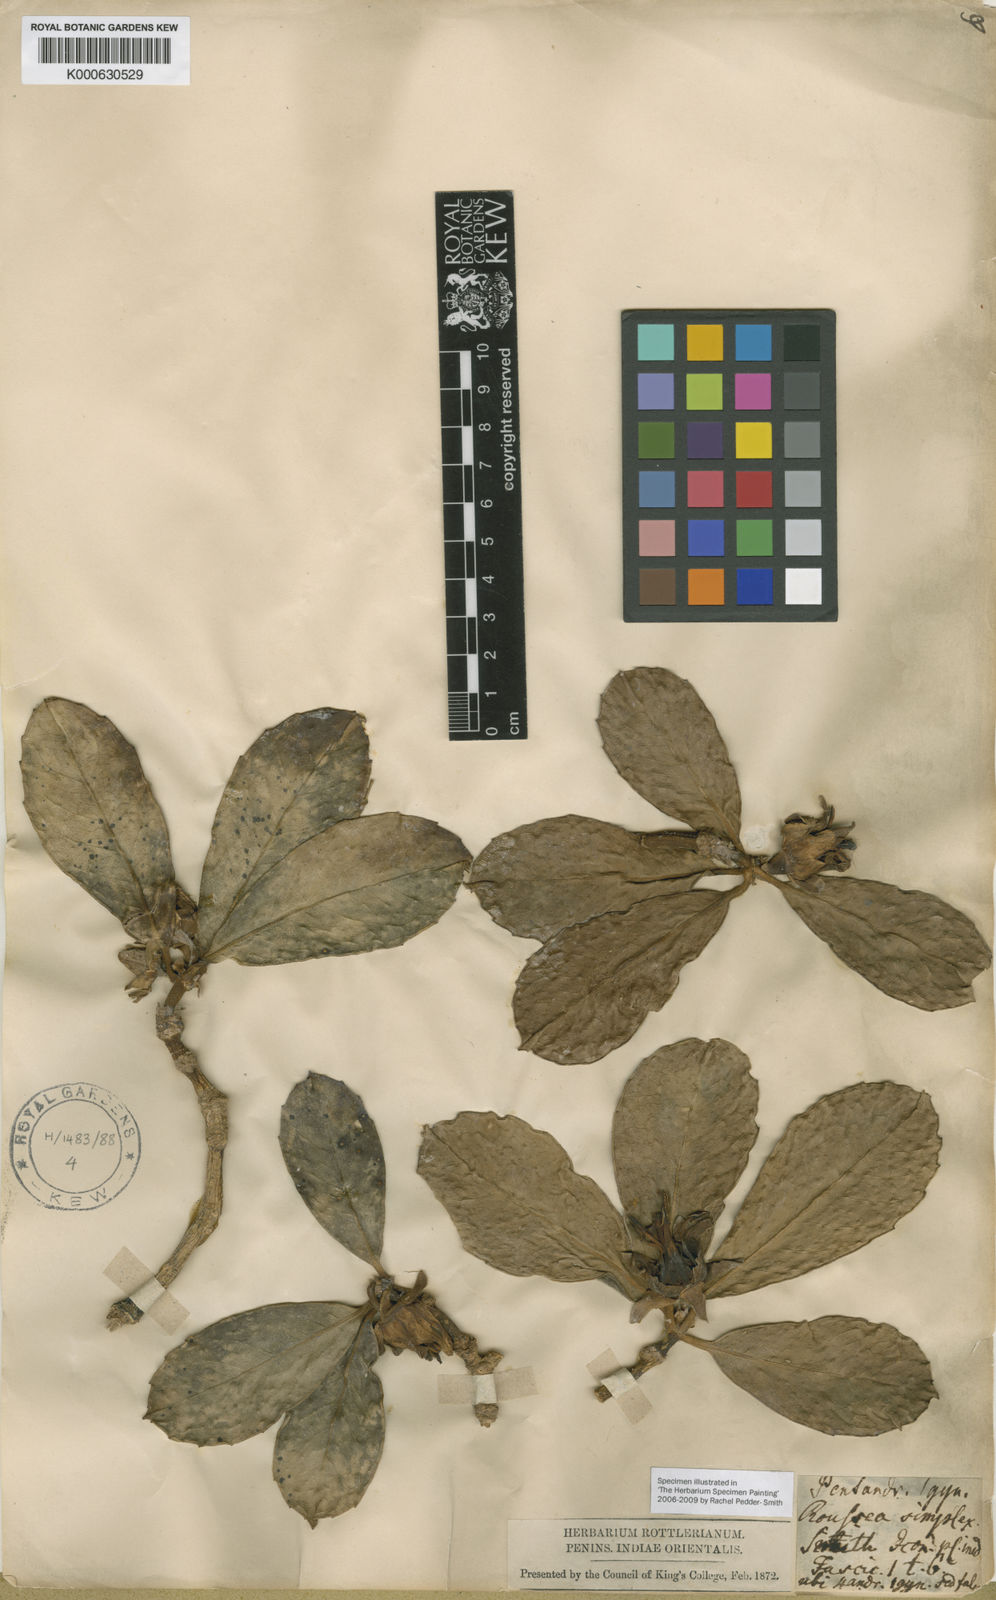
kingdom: Plantae
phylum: Tracheophyta
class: Magnoliopsida
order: Asterales
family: Rousseaceae
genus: Roussea
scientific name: Roussea simplex
